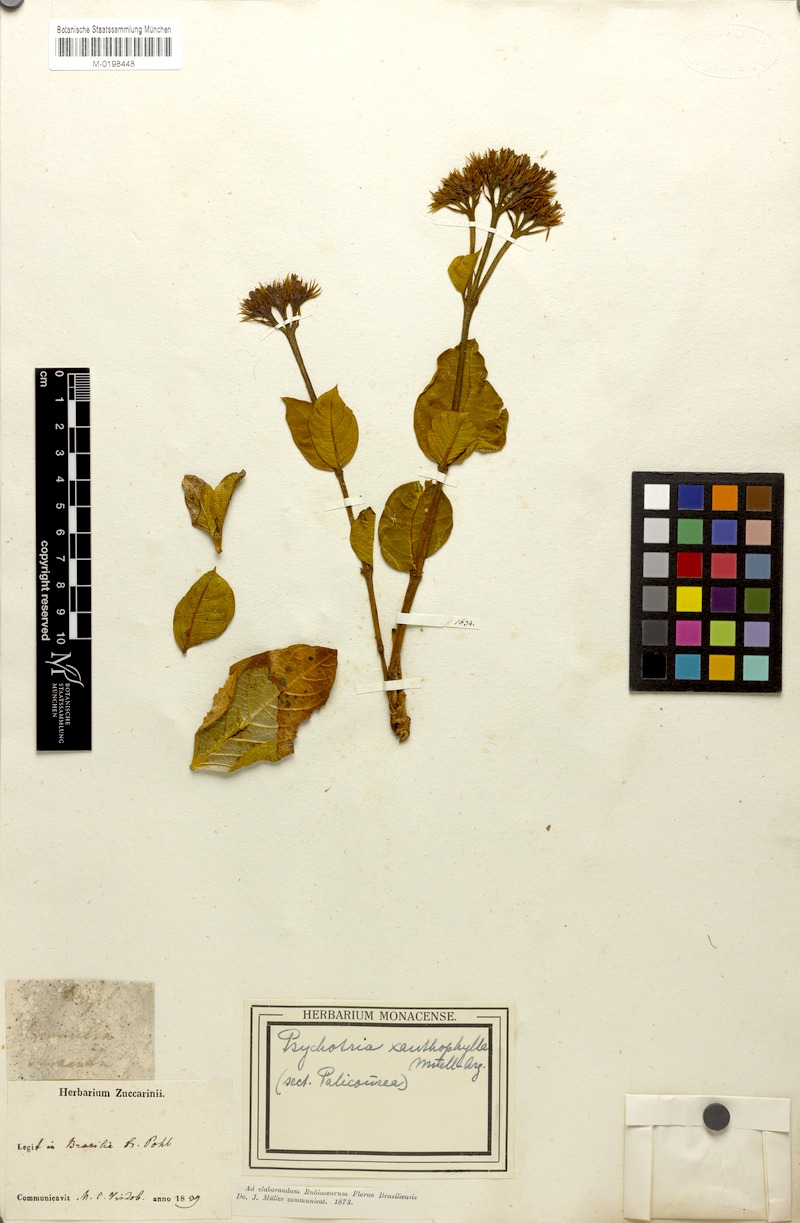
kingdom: Plantae
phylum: Tracheophyta
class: Magnoliopsida
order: Gentianales
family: Rubiaceae
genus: Palicourea
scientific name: Palicourea coriacea
